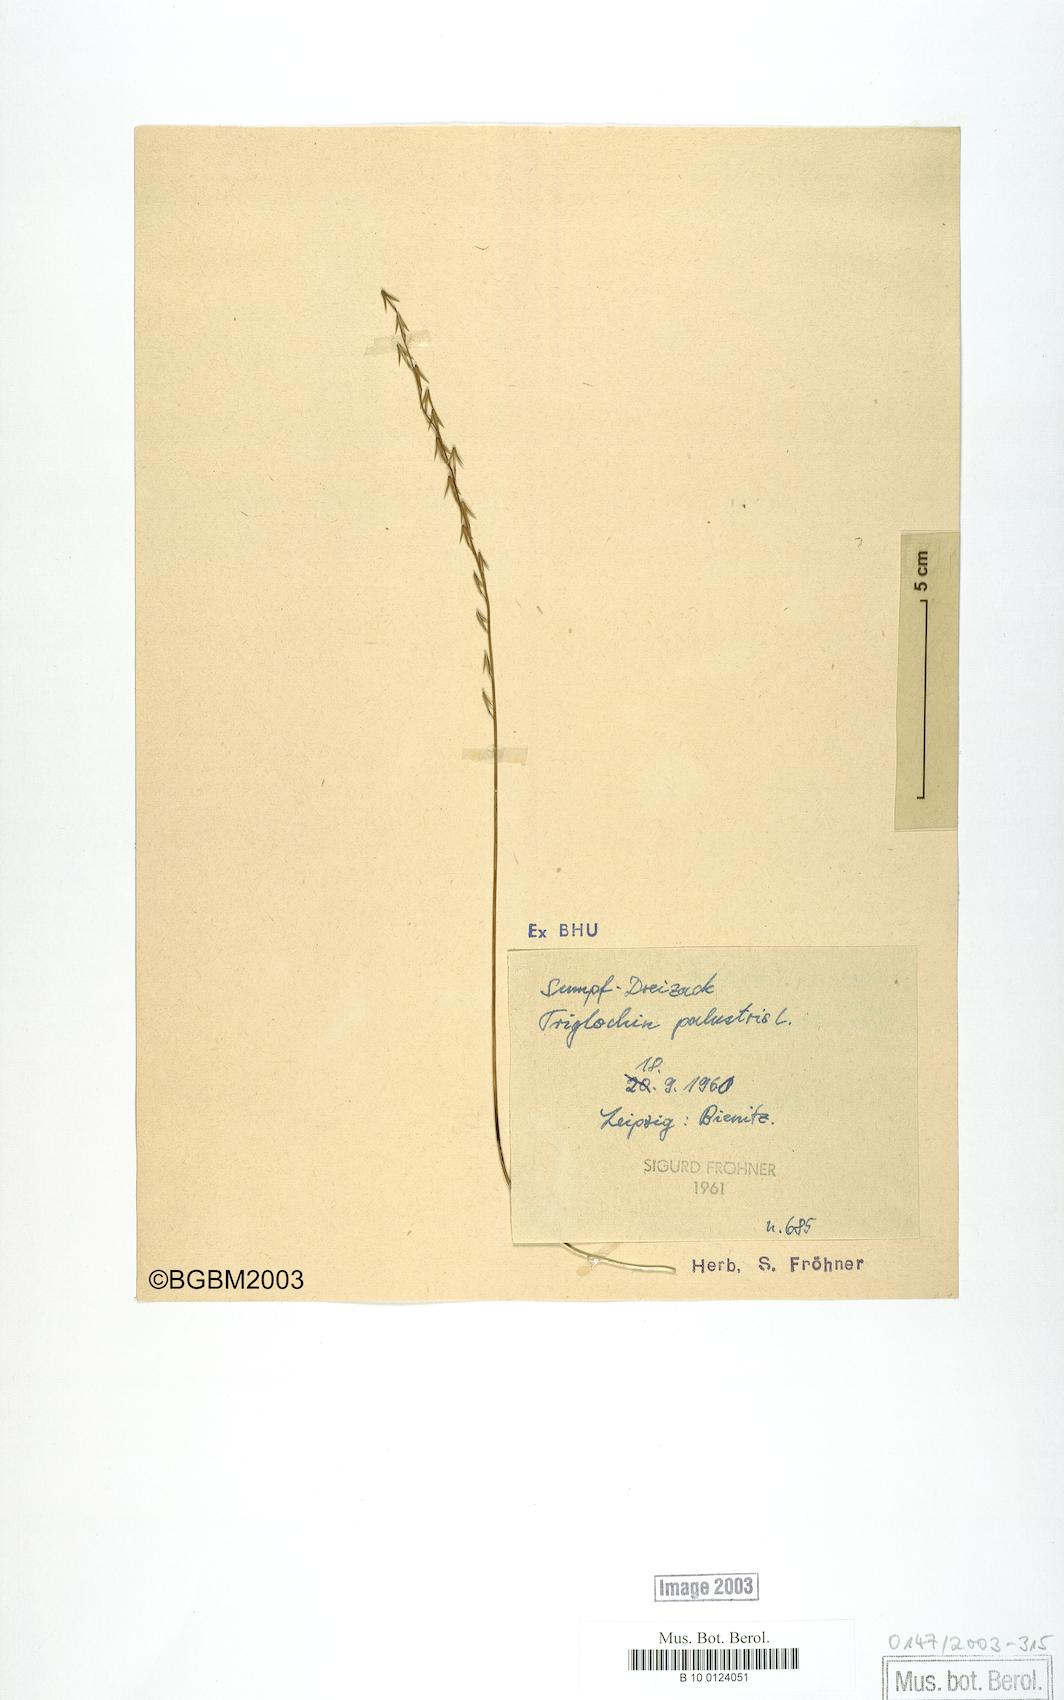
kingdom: Plantae
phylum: Tracheophyta
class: Liliopsida
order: Alismatales
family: Juncaginaceae
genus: Triglochin
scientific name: Triglochin palustris
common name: Marsh arrowgrass
